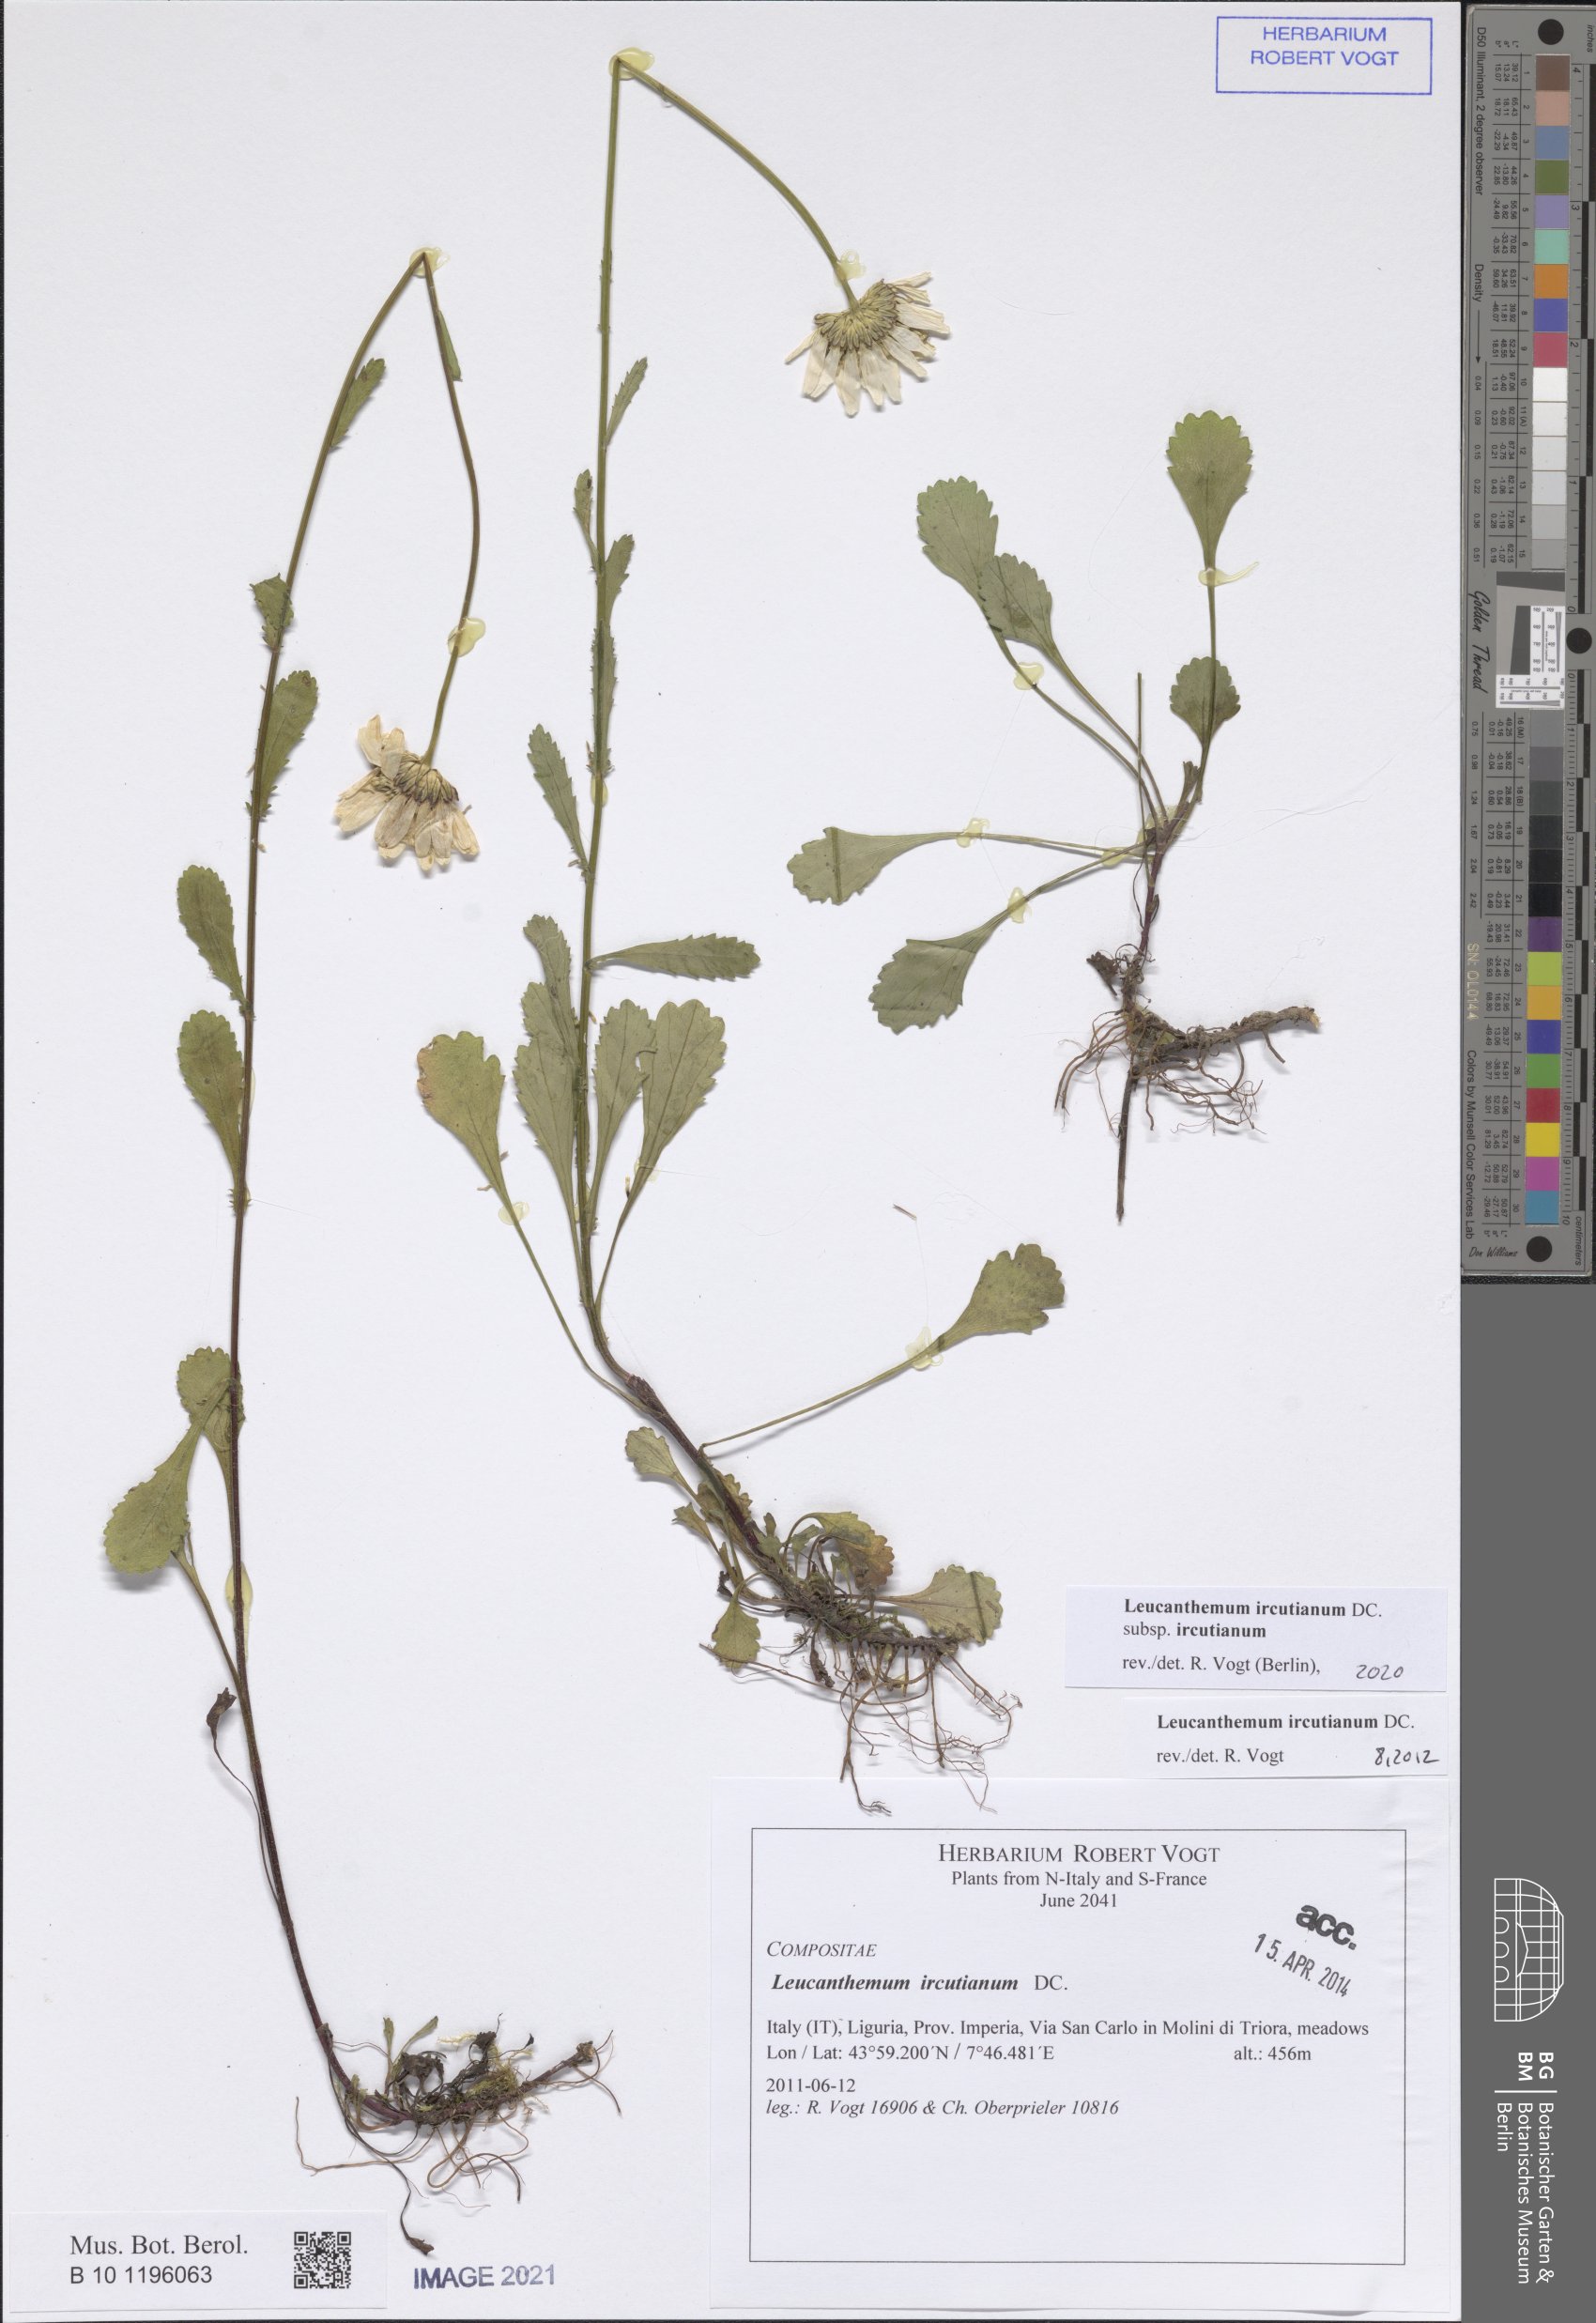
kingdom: Plantae
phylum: Tracheophyta
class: Magnoliopsida
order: Asterales
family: Asteraceae
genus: Leucanthemum
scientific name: Leucanthemum ircutianum
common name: Daisy
